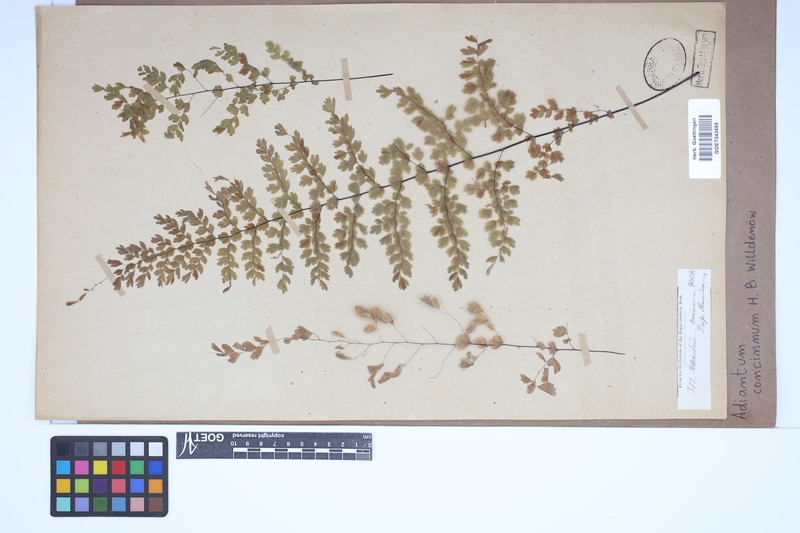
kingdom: Plantae
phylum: Tracheophyta
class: Polypodiopsida
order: Polypodiales
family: Pteridaceae
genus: Adiantum
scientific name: Adiantum concinnum
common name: Brittle maidenhair fern
